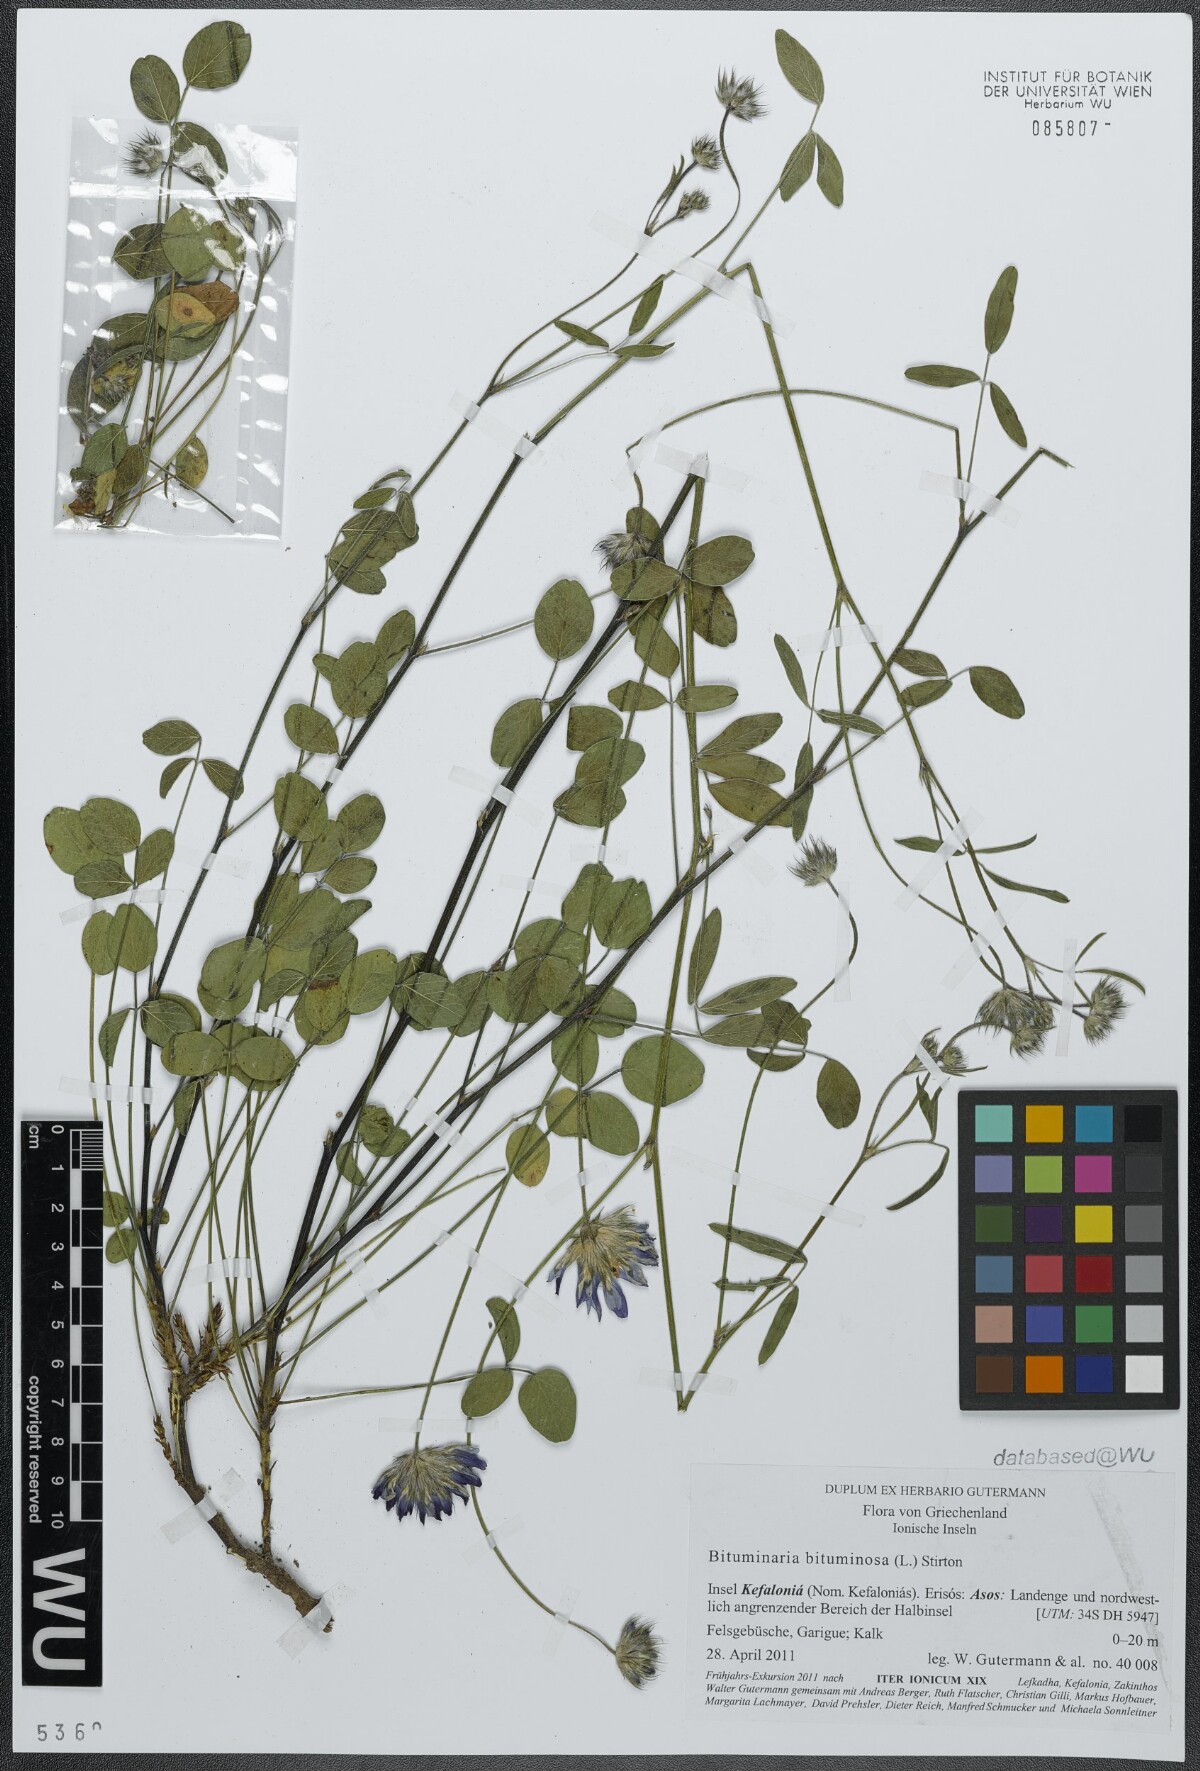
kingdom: Plantae
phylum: Tracheophyta
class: Magnoliopsida
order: Fabales
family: Fabaceae
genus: Bituminaria
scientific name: Bituminaria bituminosa
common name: Arabian pea
